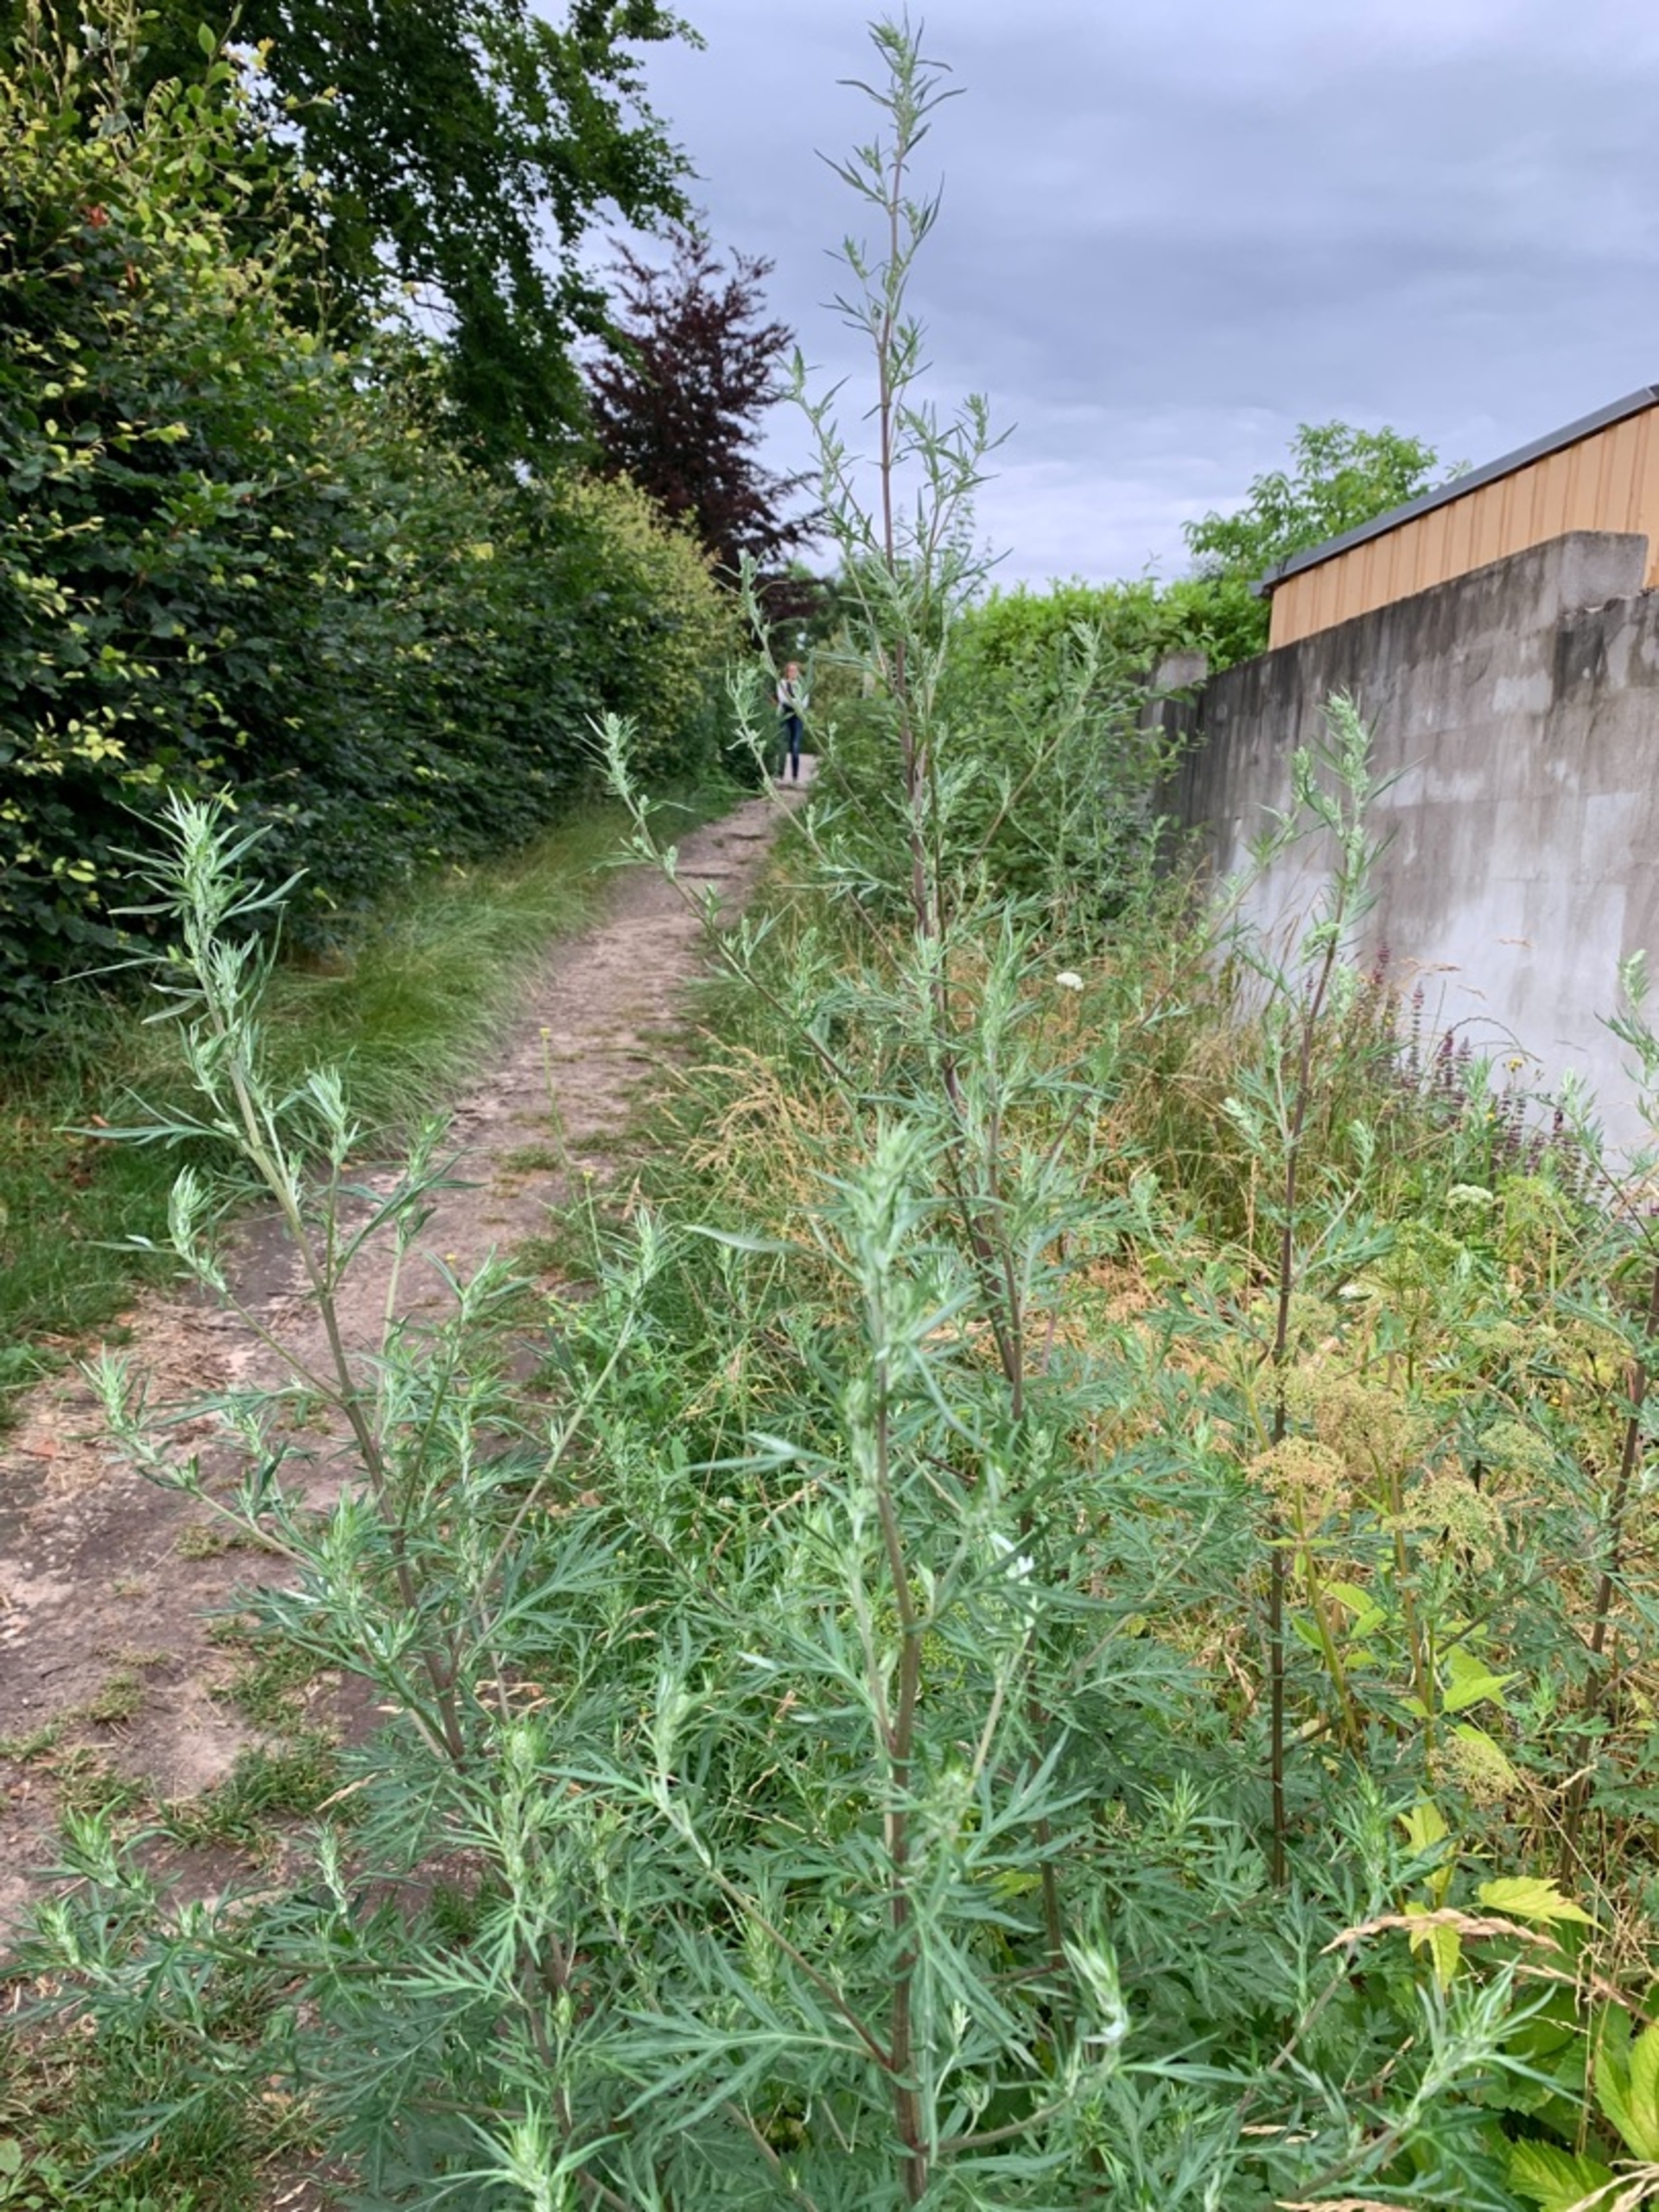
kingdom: Plantae
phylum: Tracheophyta
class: Magnoliopsida
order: Asterales
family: Asteraceae
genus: Artemisia
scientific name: Artemisia vulgaris
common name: Grå-bynke (varietet)
